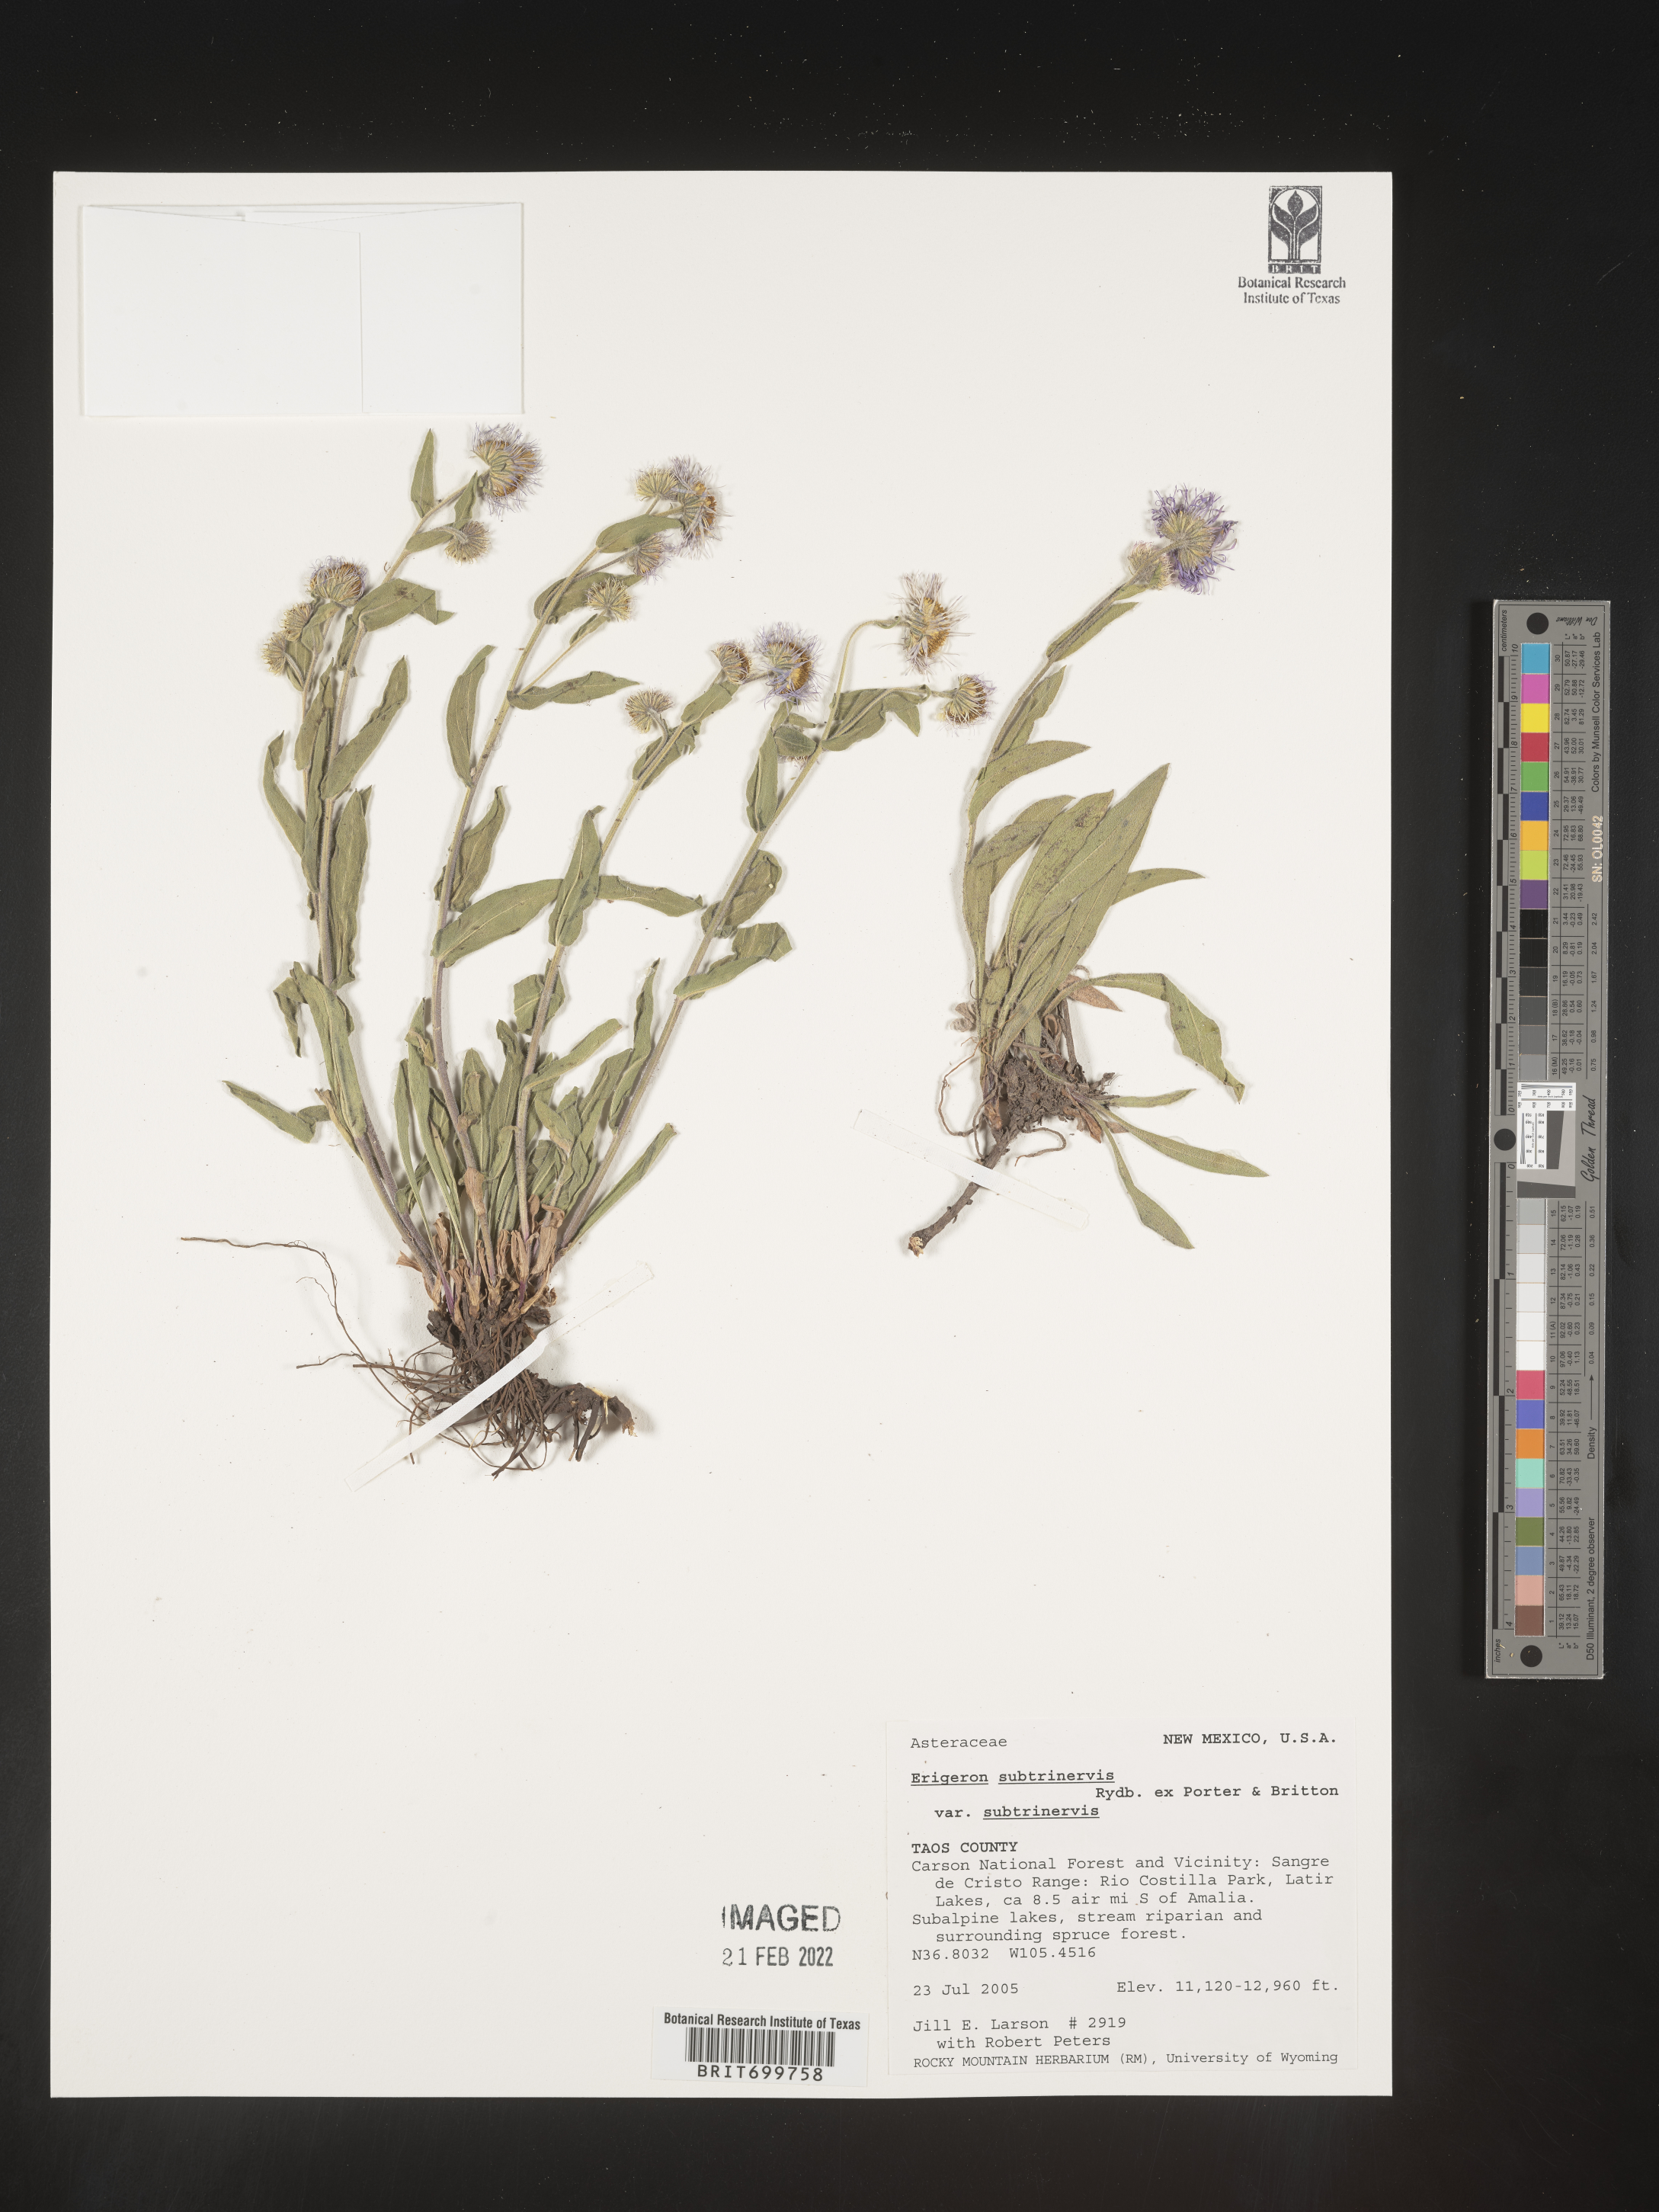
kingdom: Plantae
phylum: Tracheophyta
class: Magnoliopsida
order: Asterales
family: Asteraceae
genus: Erigeron
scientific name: Erigeron subtrinervis
